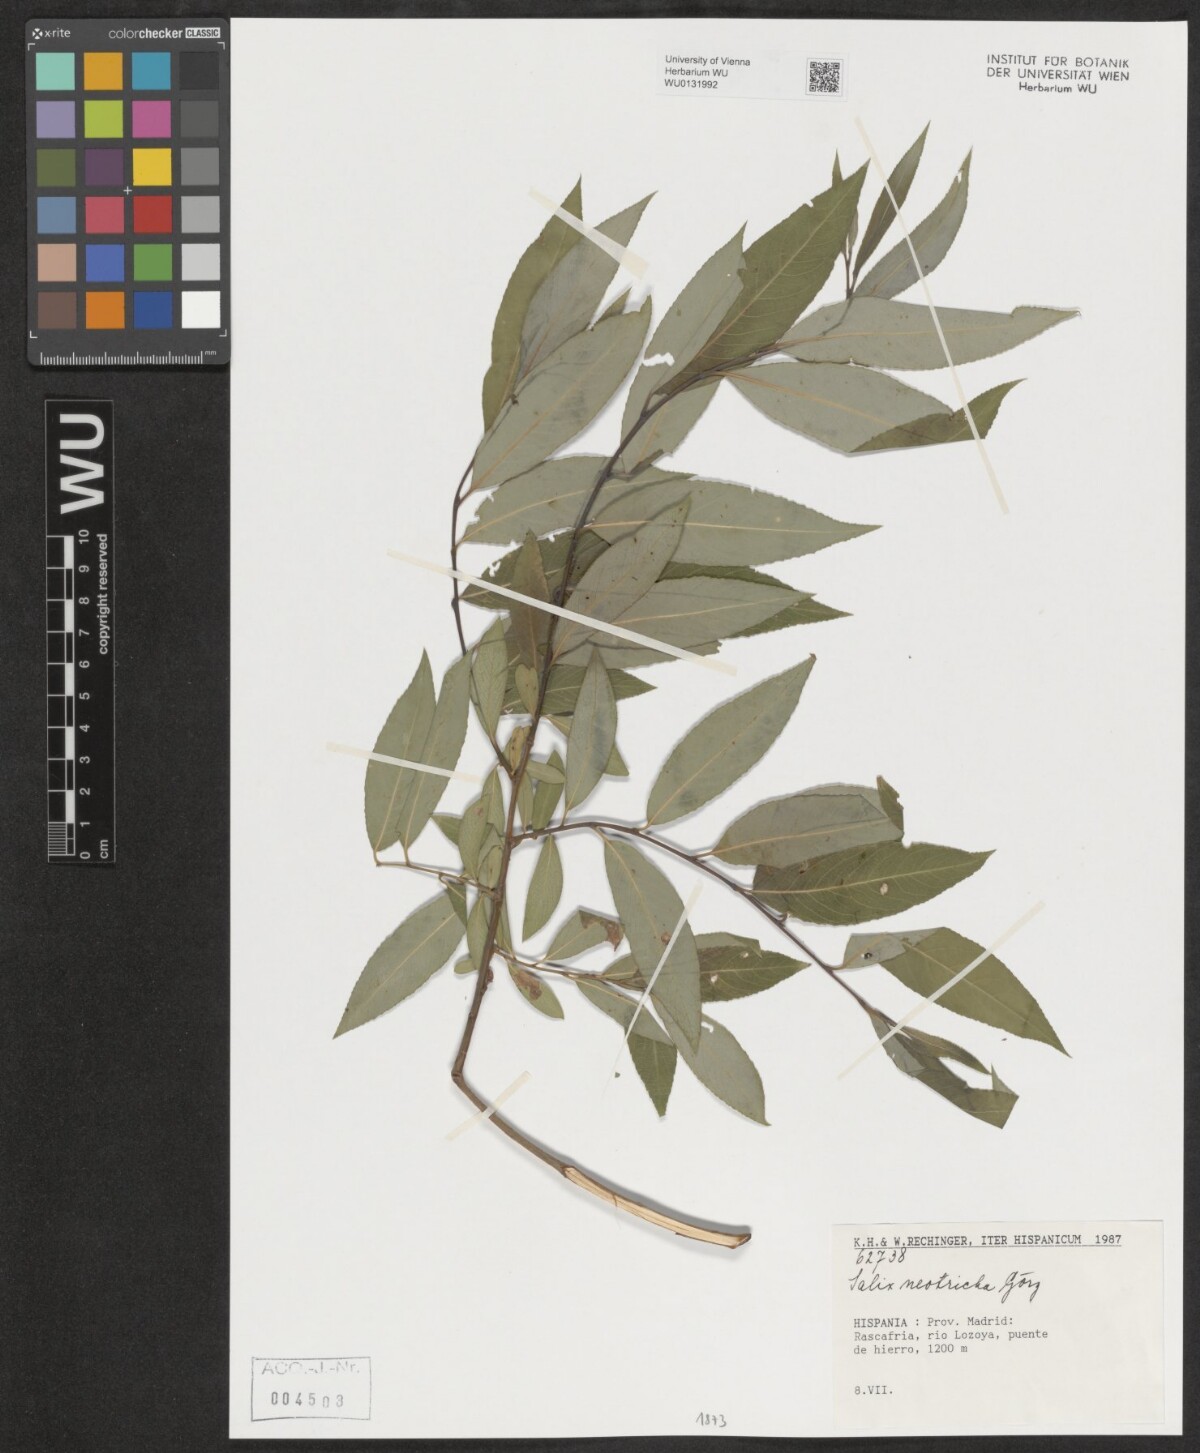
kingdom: Plantae
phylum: Tracheophyta
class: Magnoliopsida
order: Malpighiales
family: Salicaceae
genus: Salix
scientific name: Salix rubens
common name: Hybrid crack willow
